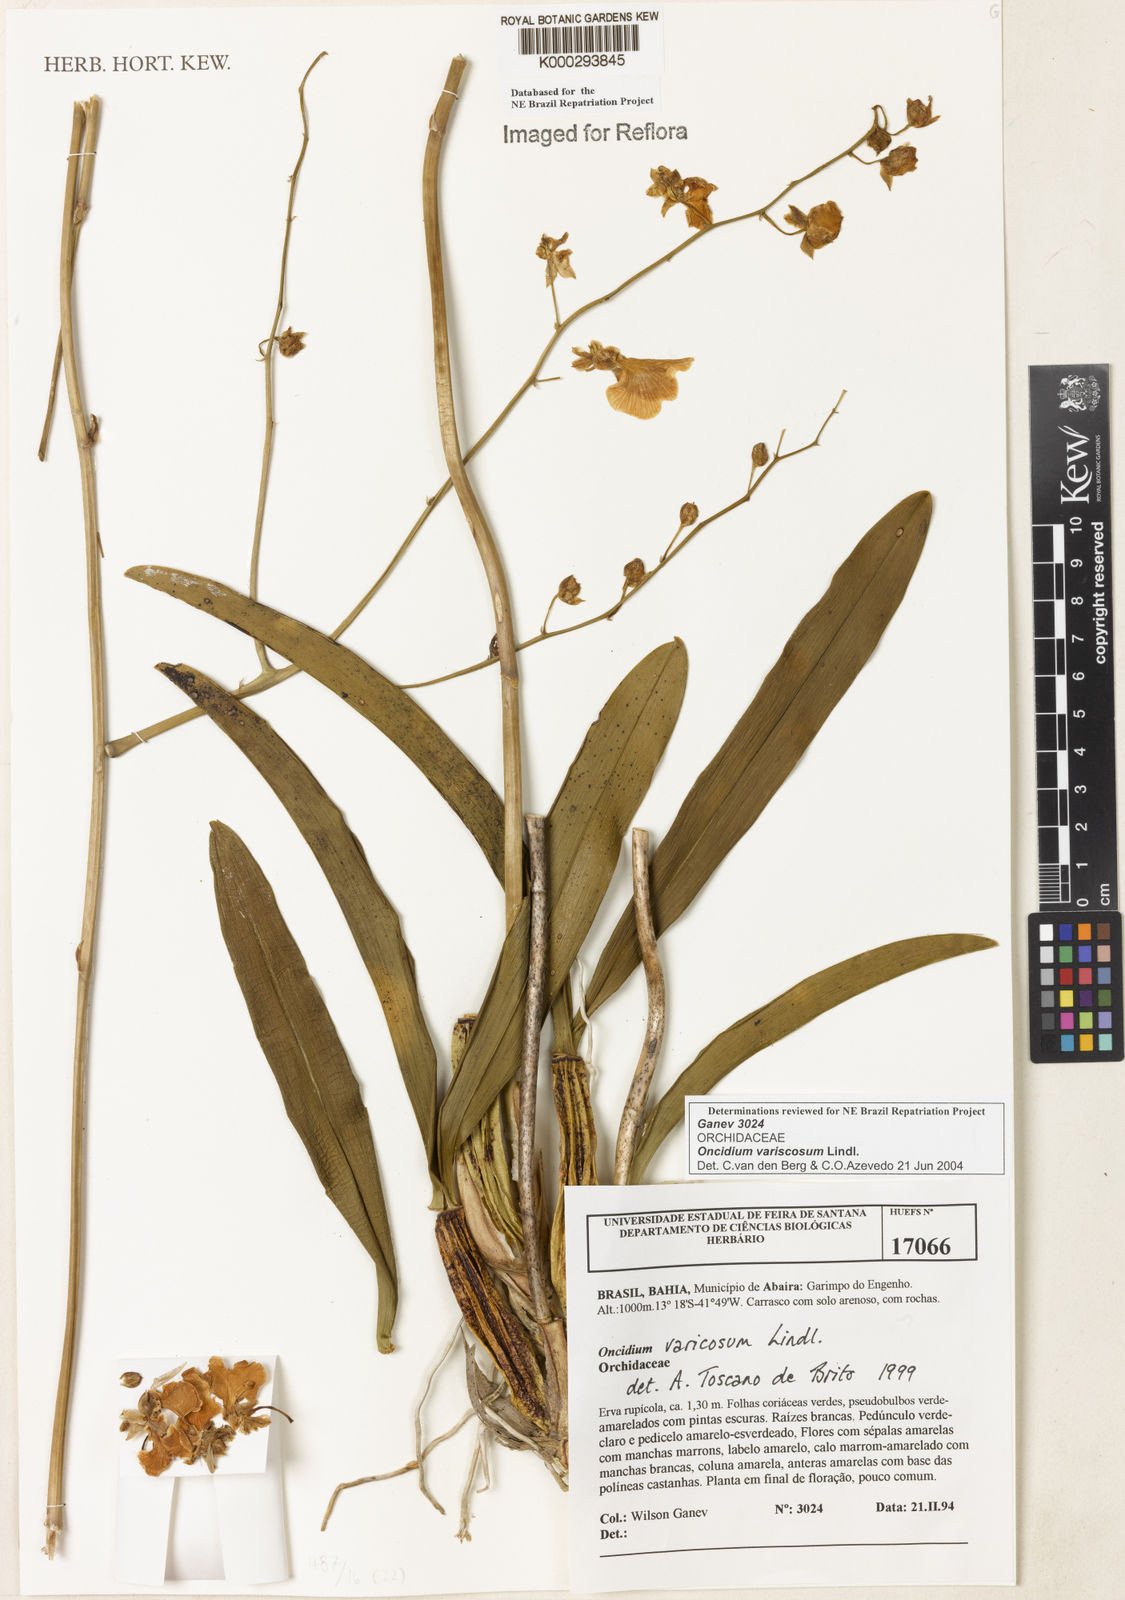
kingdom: Plantae
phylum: Tracheophyta
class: Liliopsida
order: Asparagales
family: Orchidaceae
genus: Gomesa
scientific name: Gomesa varicosa
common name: Dancing ladies
